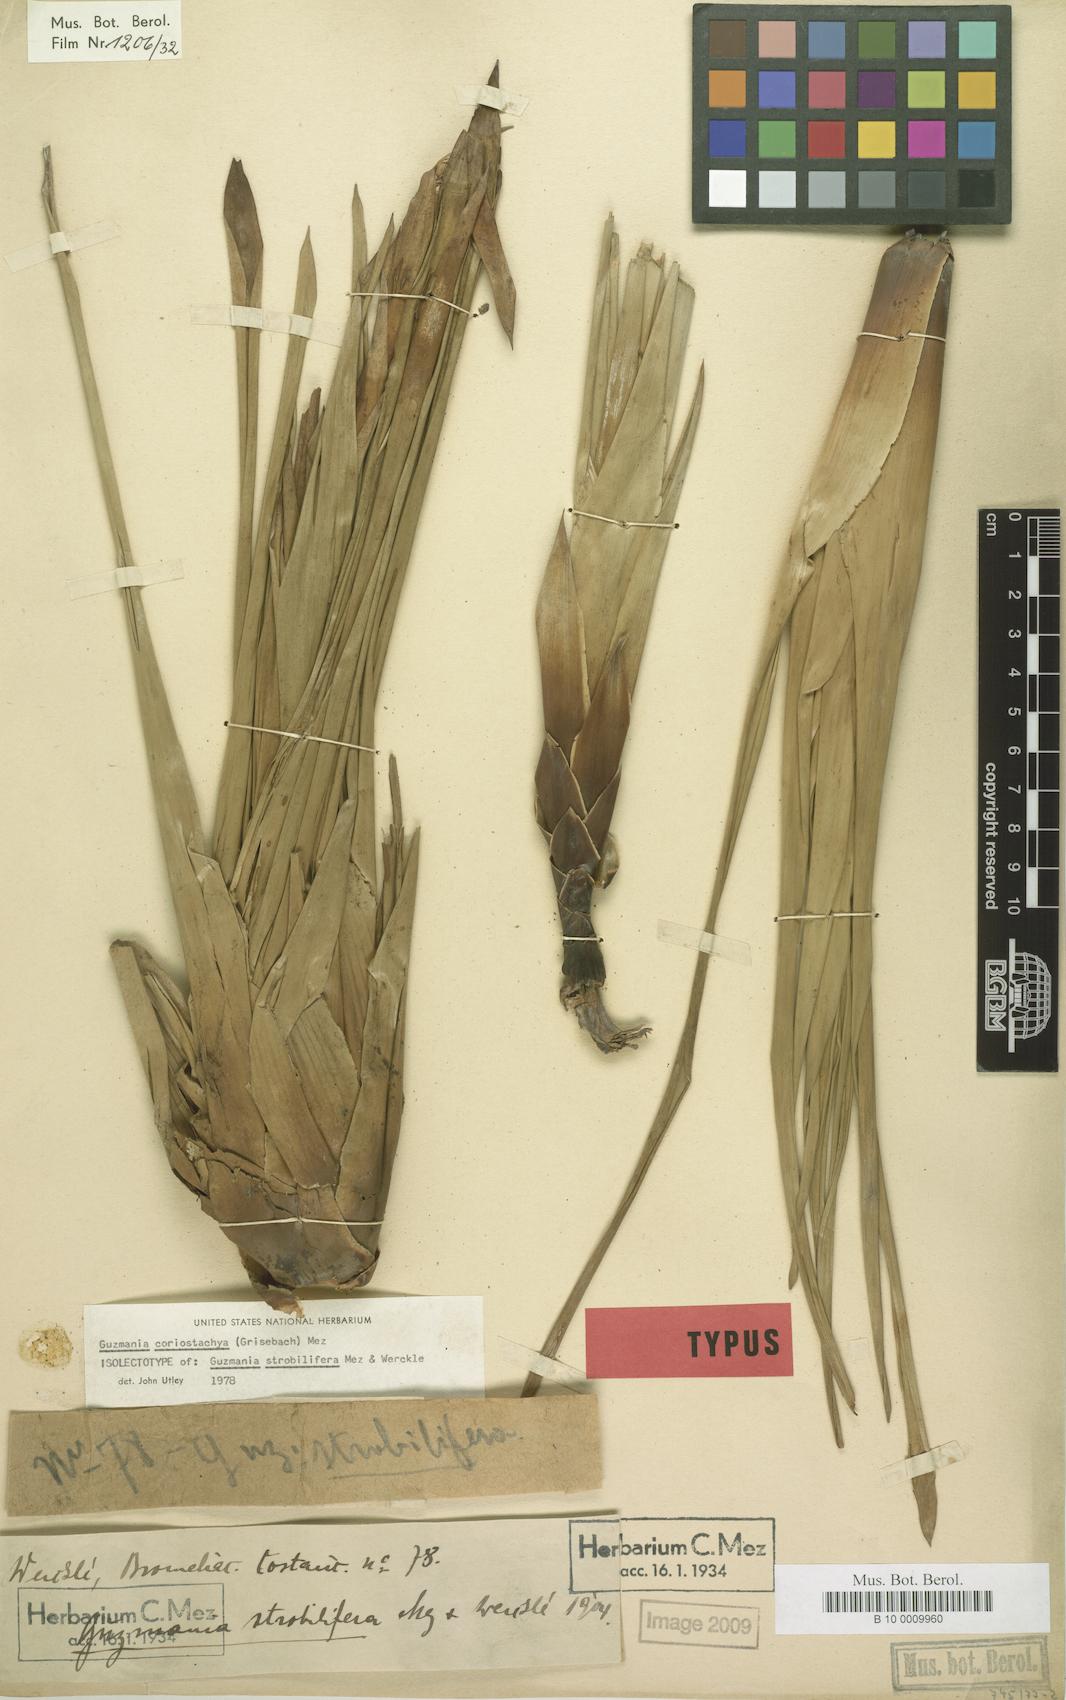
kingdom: Plantae
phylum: Tracheophyta
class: Liliopsida
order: Poales
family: Bromeliaceae
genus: Guzmania
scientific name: Guzmania coriostachya
